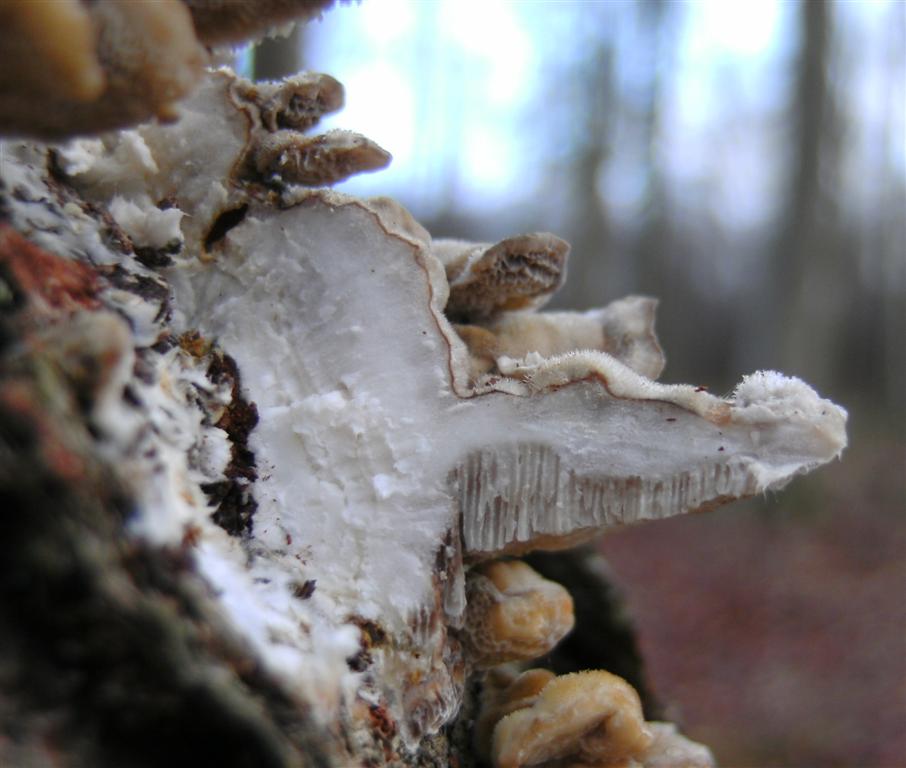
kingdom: Fungi
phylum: Basidiomycota
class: Agaricomycetes
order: Polyporales
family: Polyporaceae
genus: Trametes
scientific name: Trametes ochracea
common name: bæltet læderporesvamp
